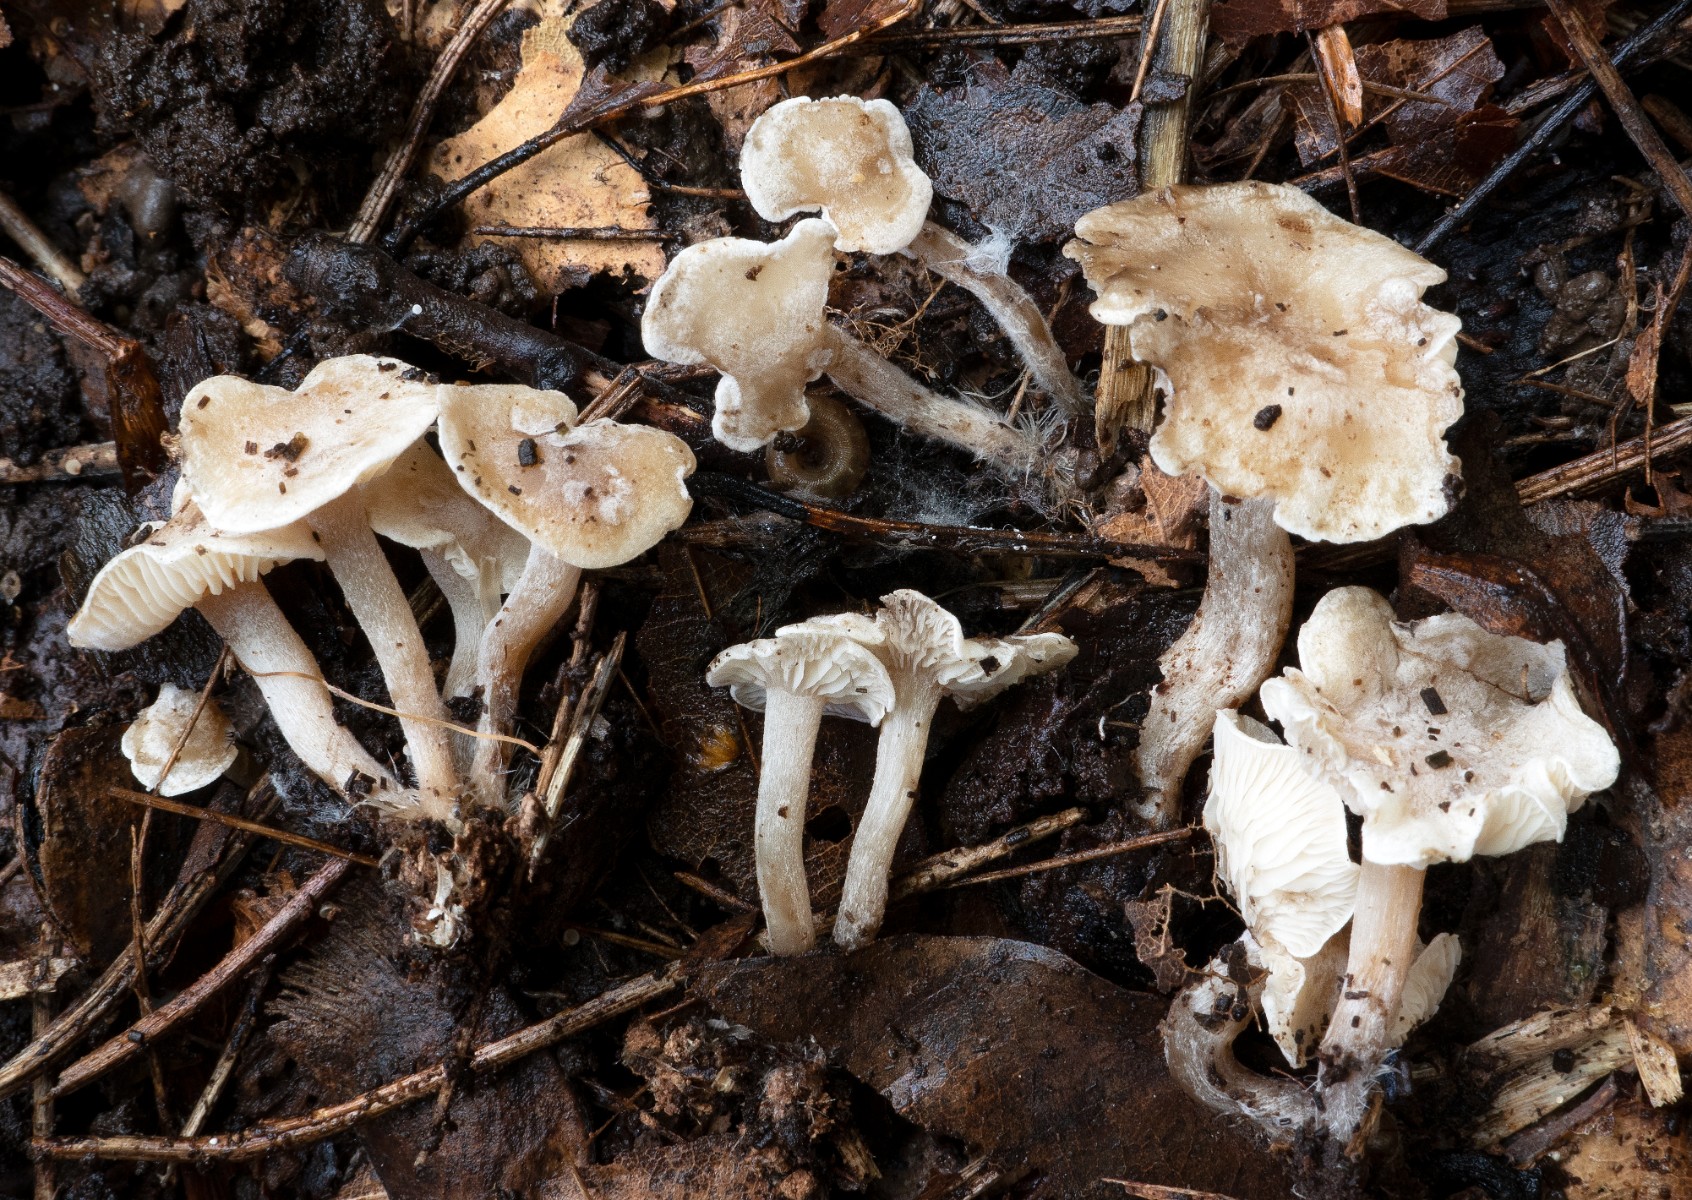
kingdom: Fungi
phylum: Basidiomycota
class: Agaricomycetes
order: Agaricales
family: Lyophyllaceae
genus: Tephrocybella
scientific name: Tephrocybella constrictospora
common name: spinkel fagerhat
